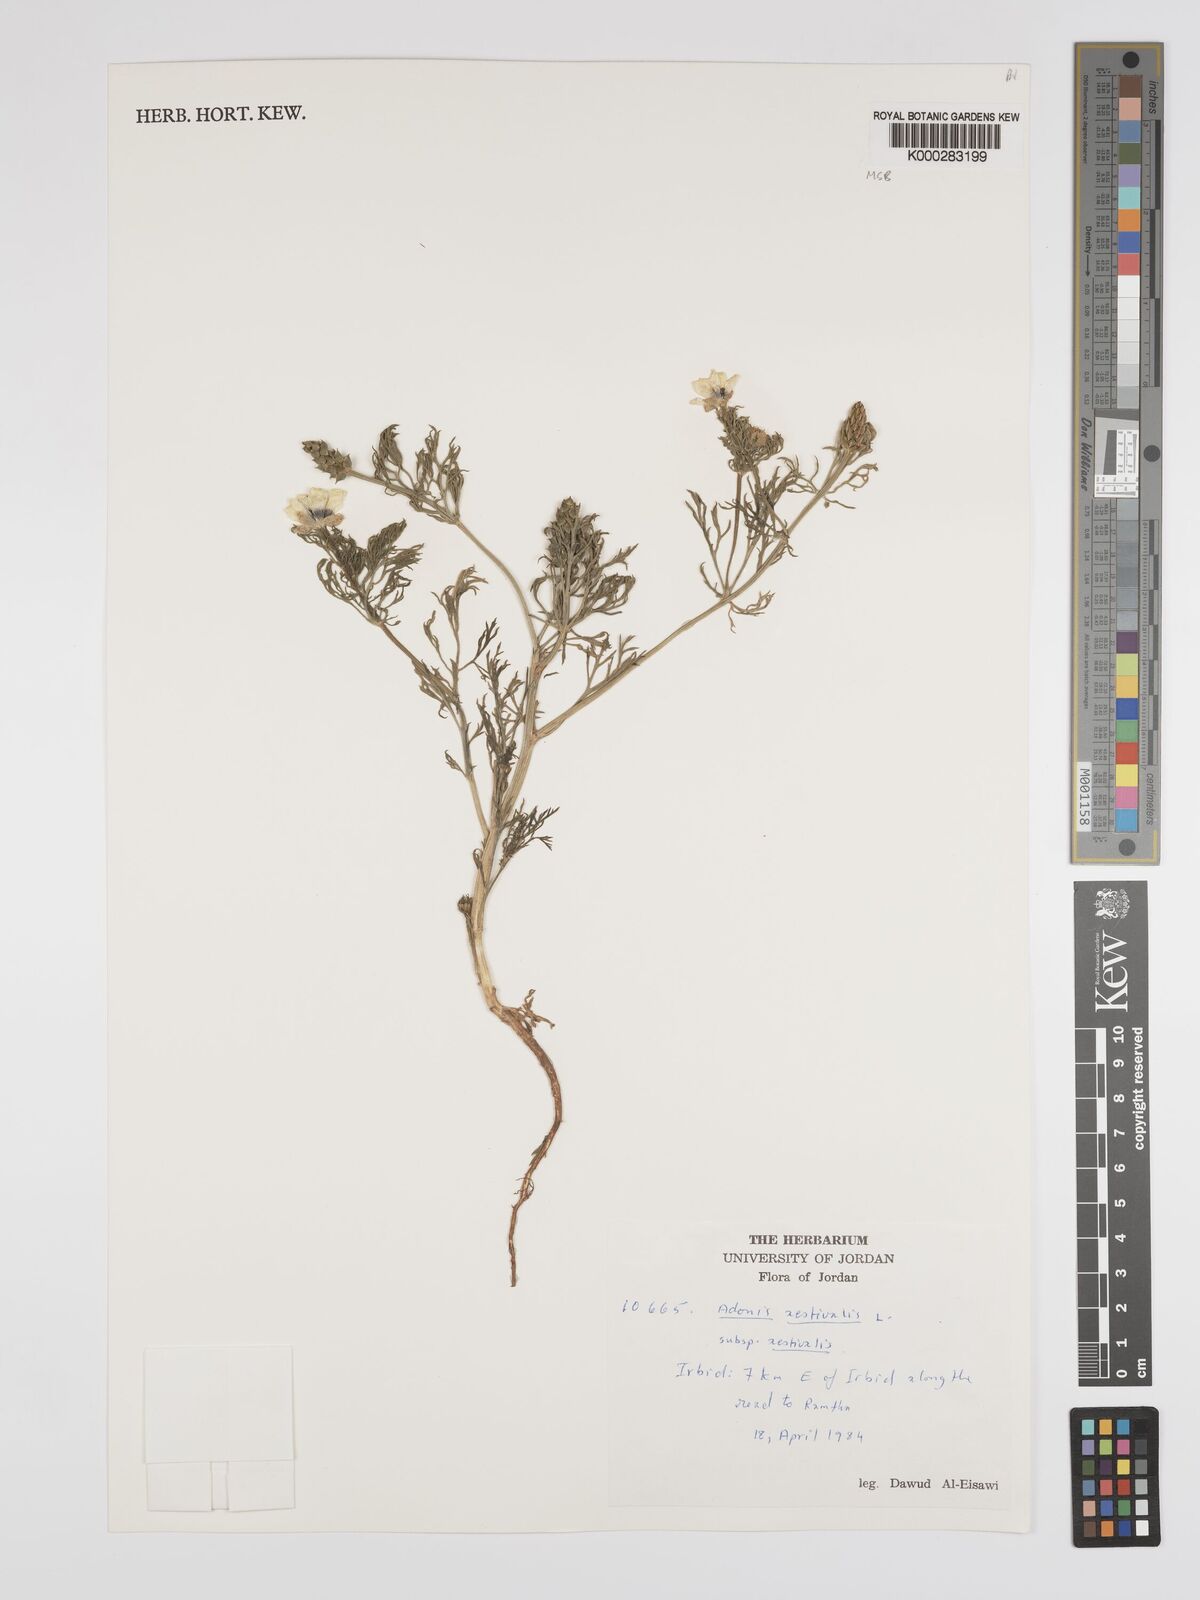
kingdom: Plantae
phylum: Tracheophyta
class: Magnoliopsida
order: Ranunculales
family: Ranunculaceae
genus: Adonis
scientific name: Adonis aestivalis
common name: Summer pheasant's-eye
